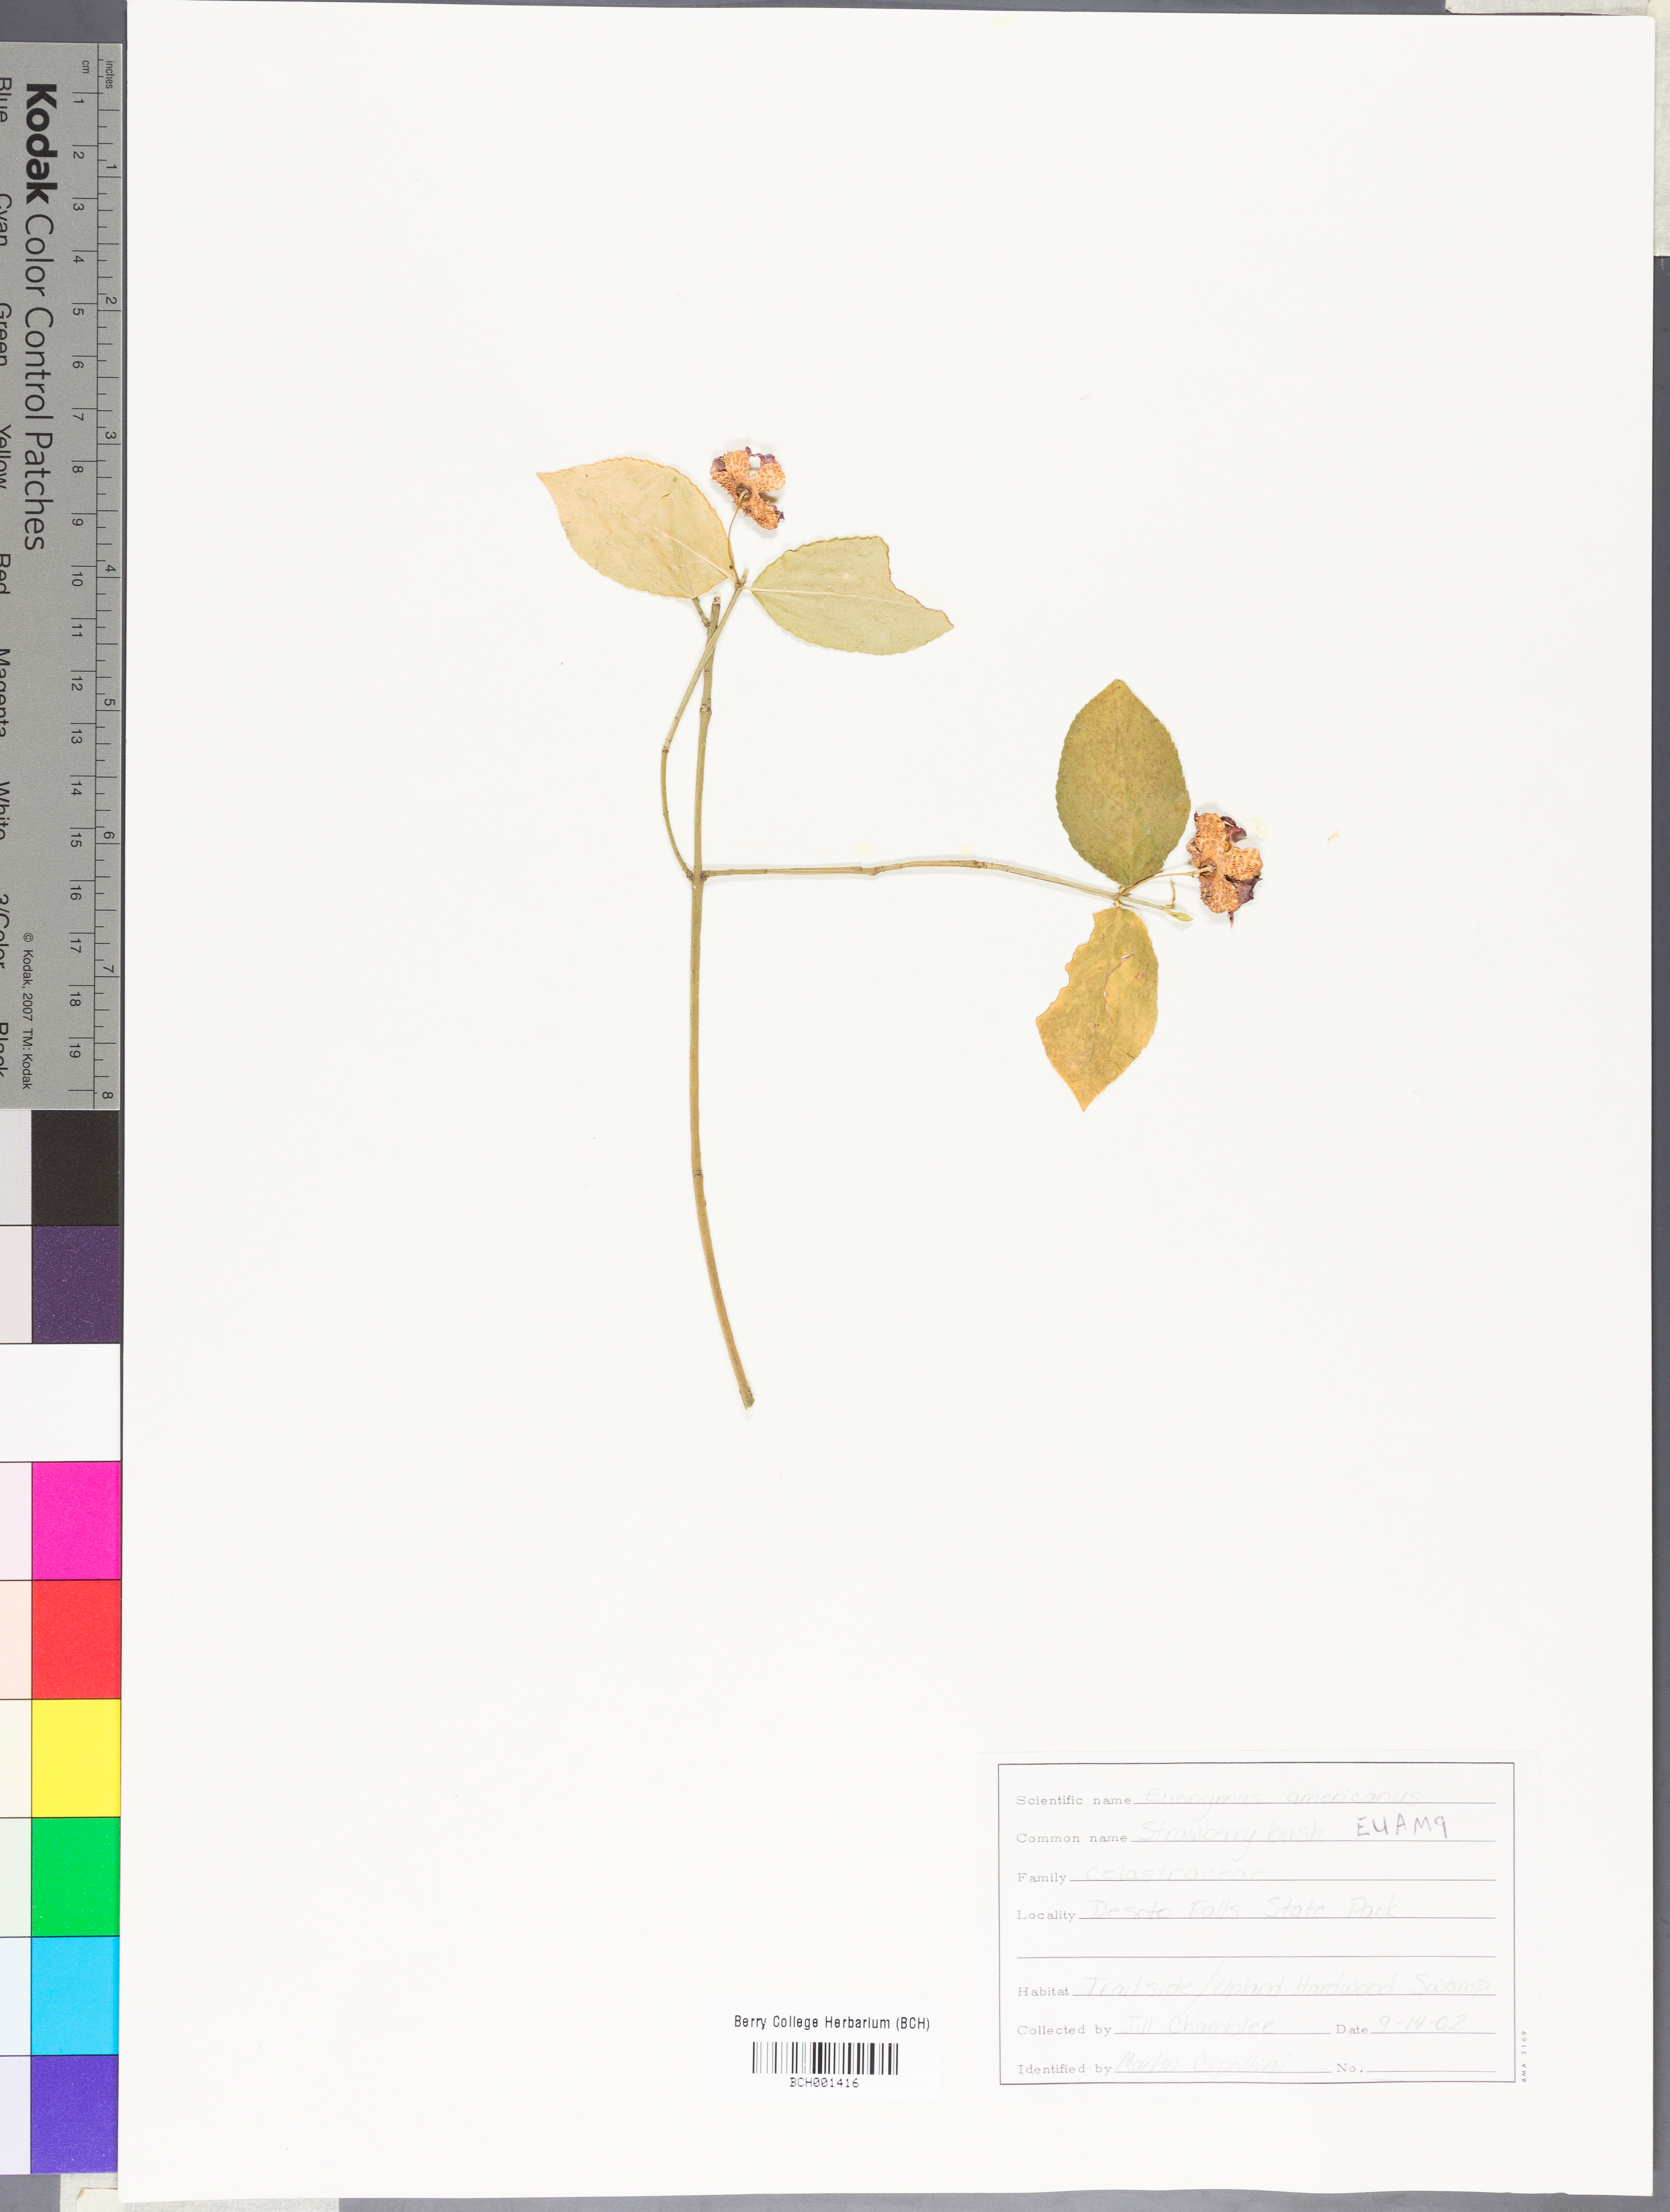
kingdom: Plantae
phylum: Tracheophyta
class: Magnoliopsida
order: Celastrales
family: Celastraceae
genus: Euonymus
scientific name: Euonymus americanus
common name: Bursting-heart
